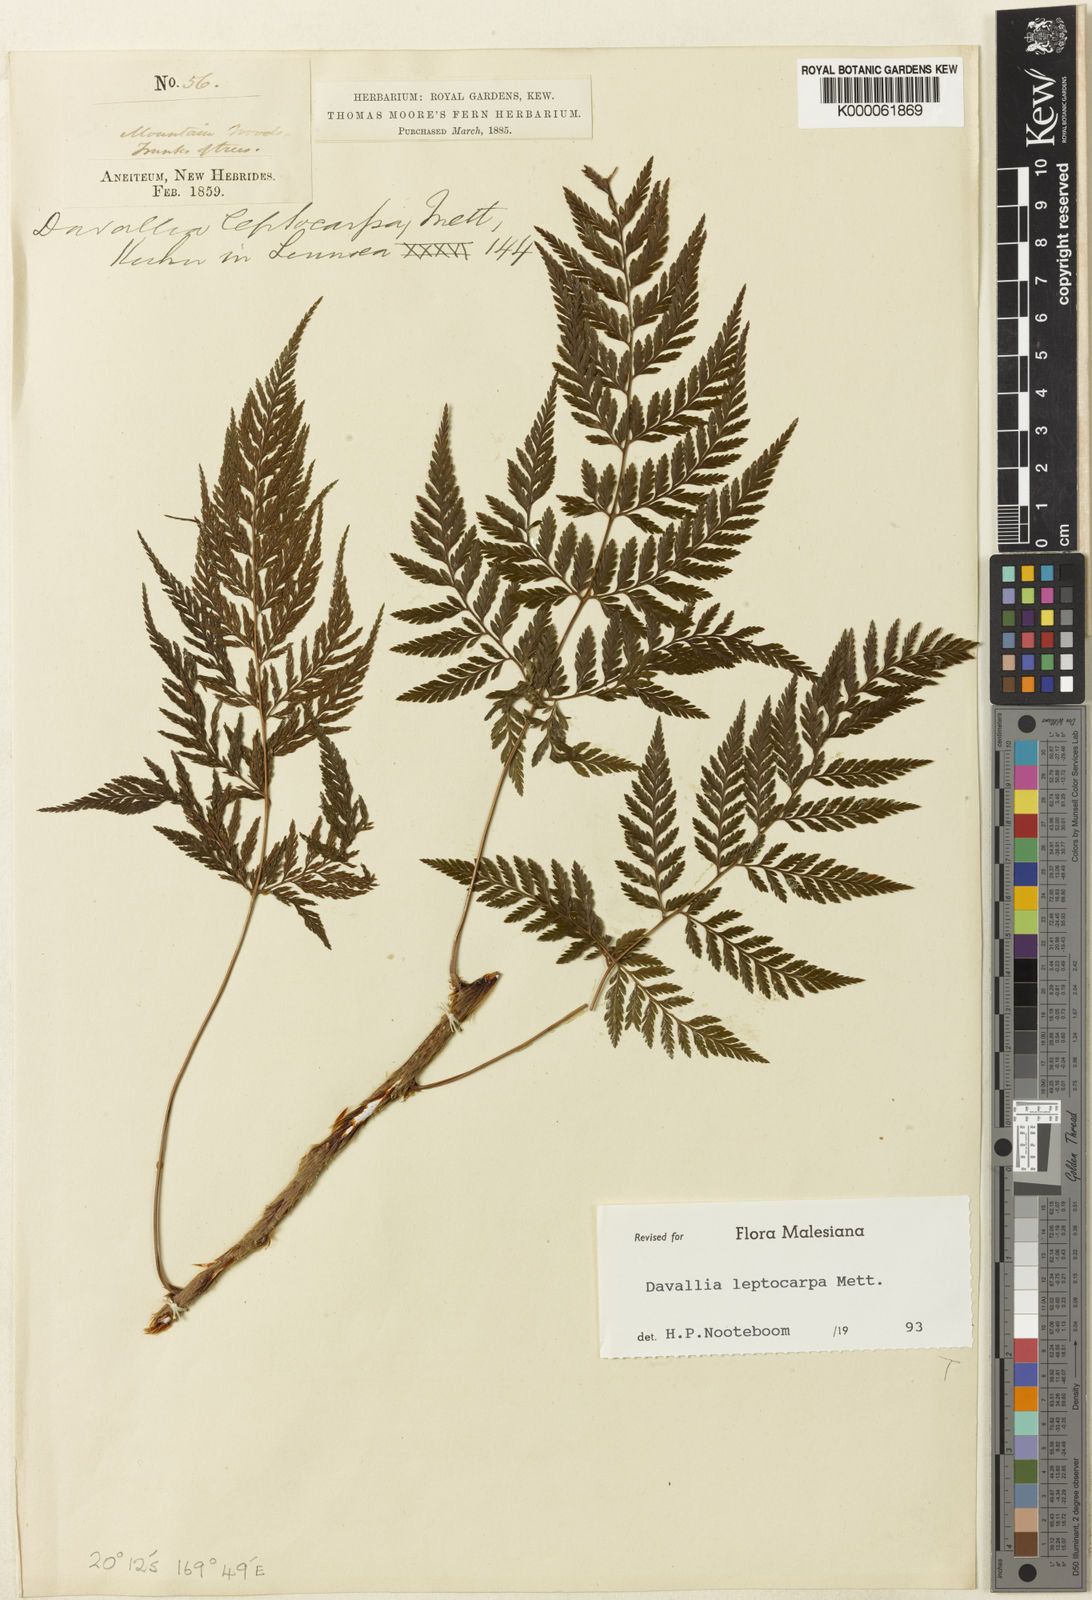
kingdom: Plantae
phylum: Tracheophyta
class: Polypodiopsida
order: Polypodiales
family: Davalliaceae
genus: Davallia
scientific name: Davallia leptocarpa
